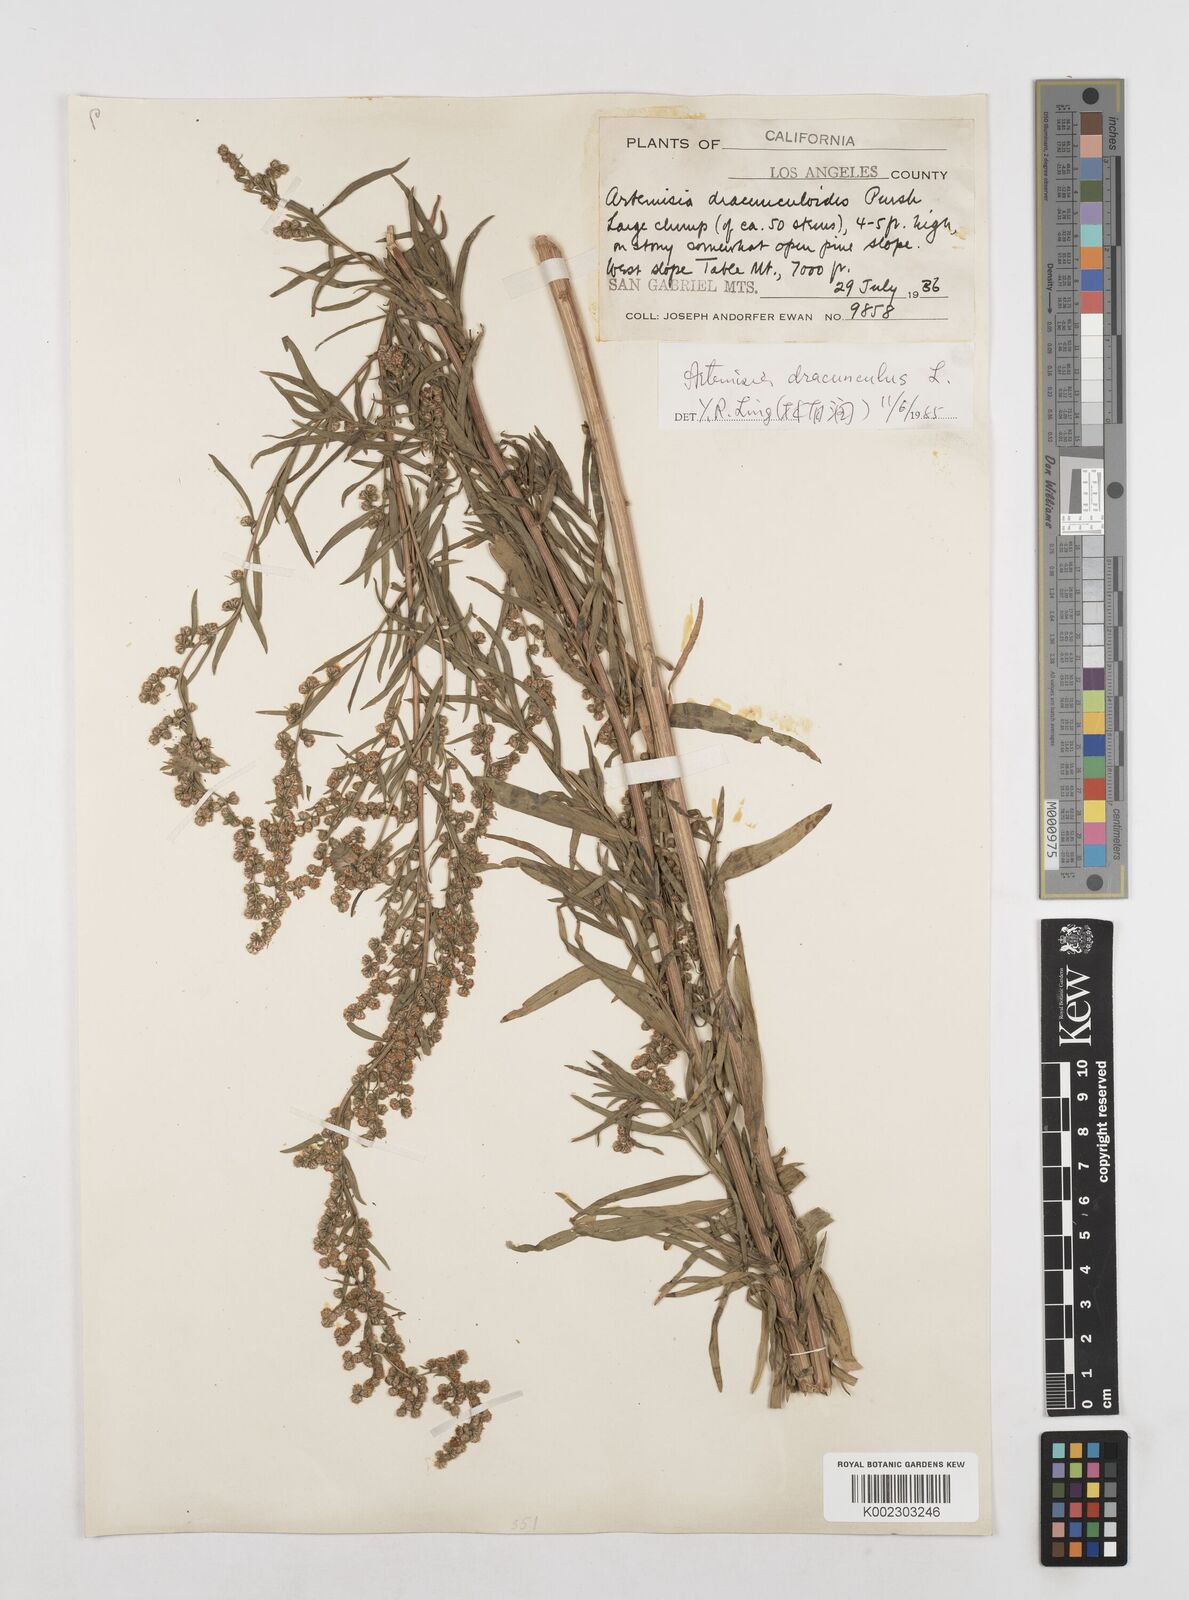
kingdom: Plantae
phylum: Tracheophyta
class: Magnoliopsida
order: Asterales
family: Asteraceae
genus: Artemisia
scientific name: Artemisia dracunculus
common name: Tarragon
